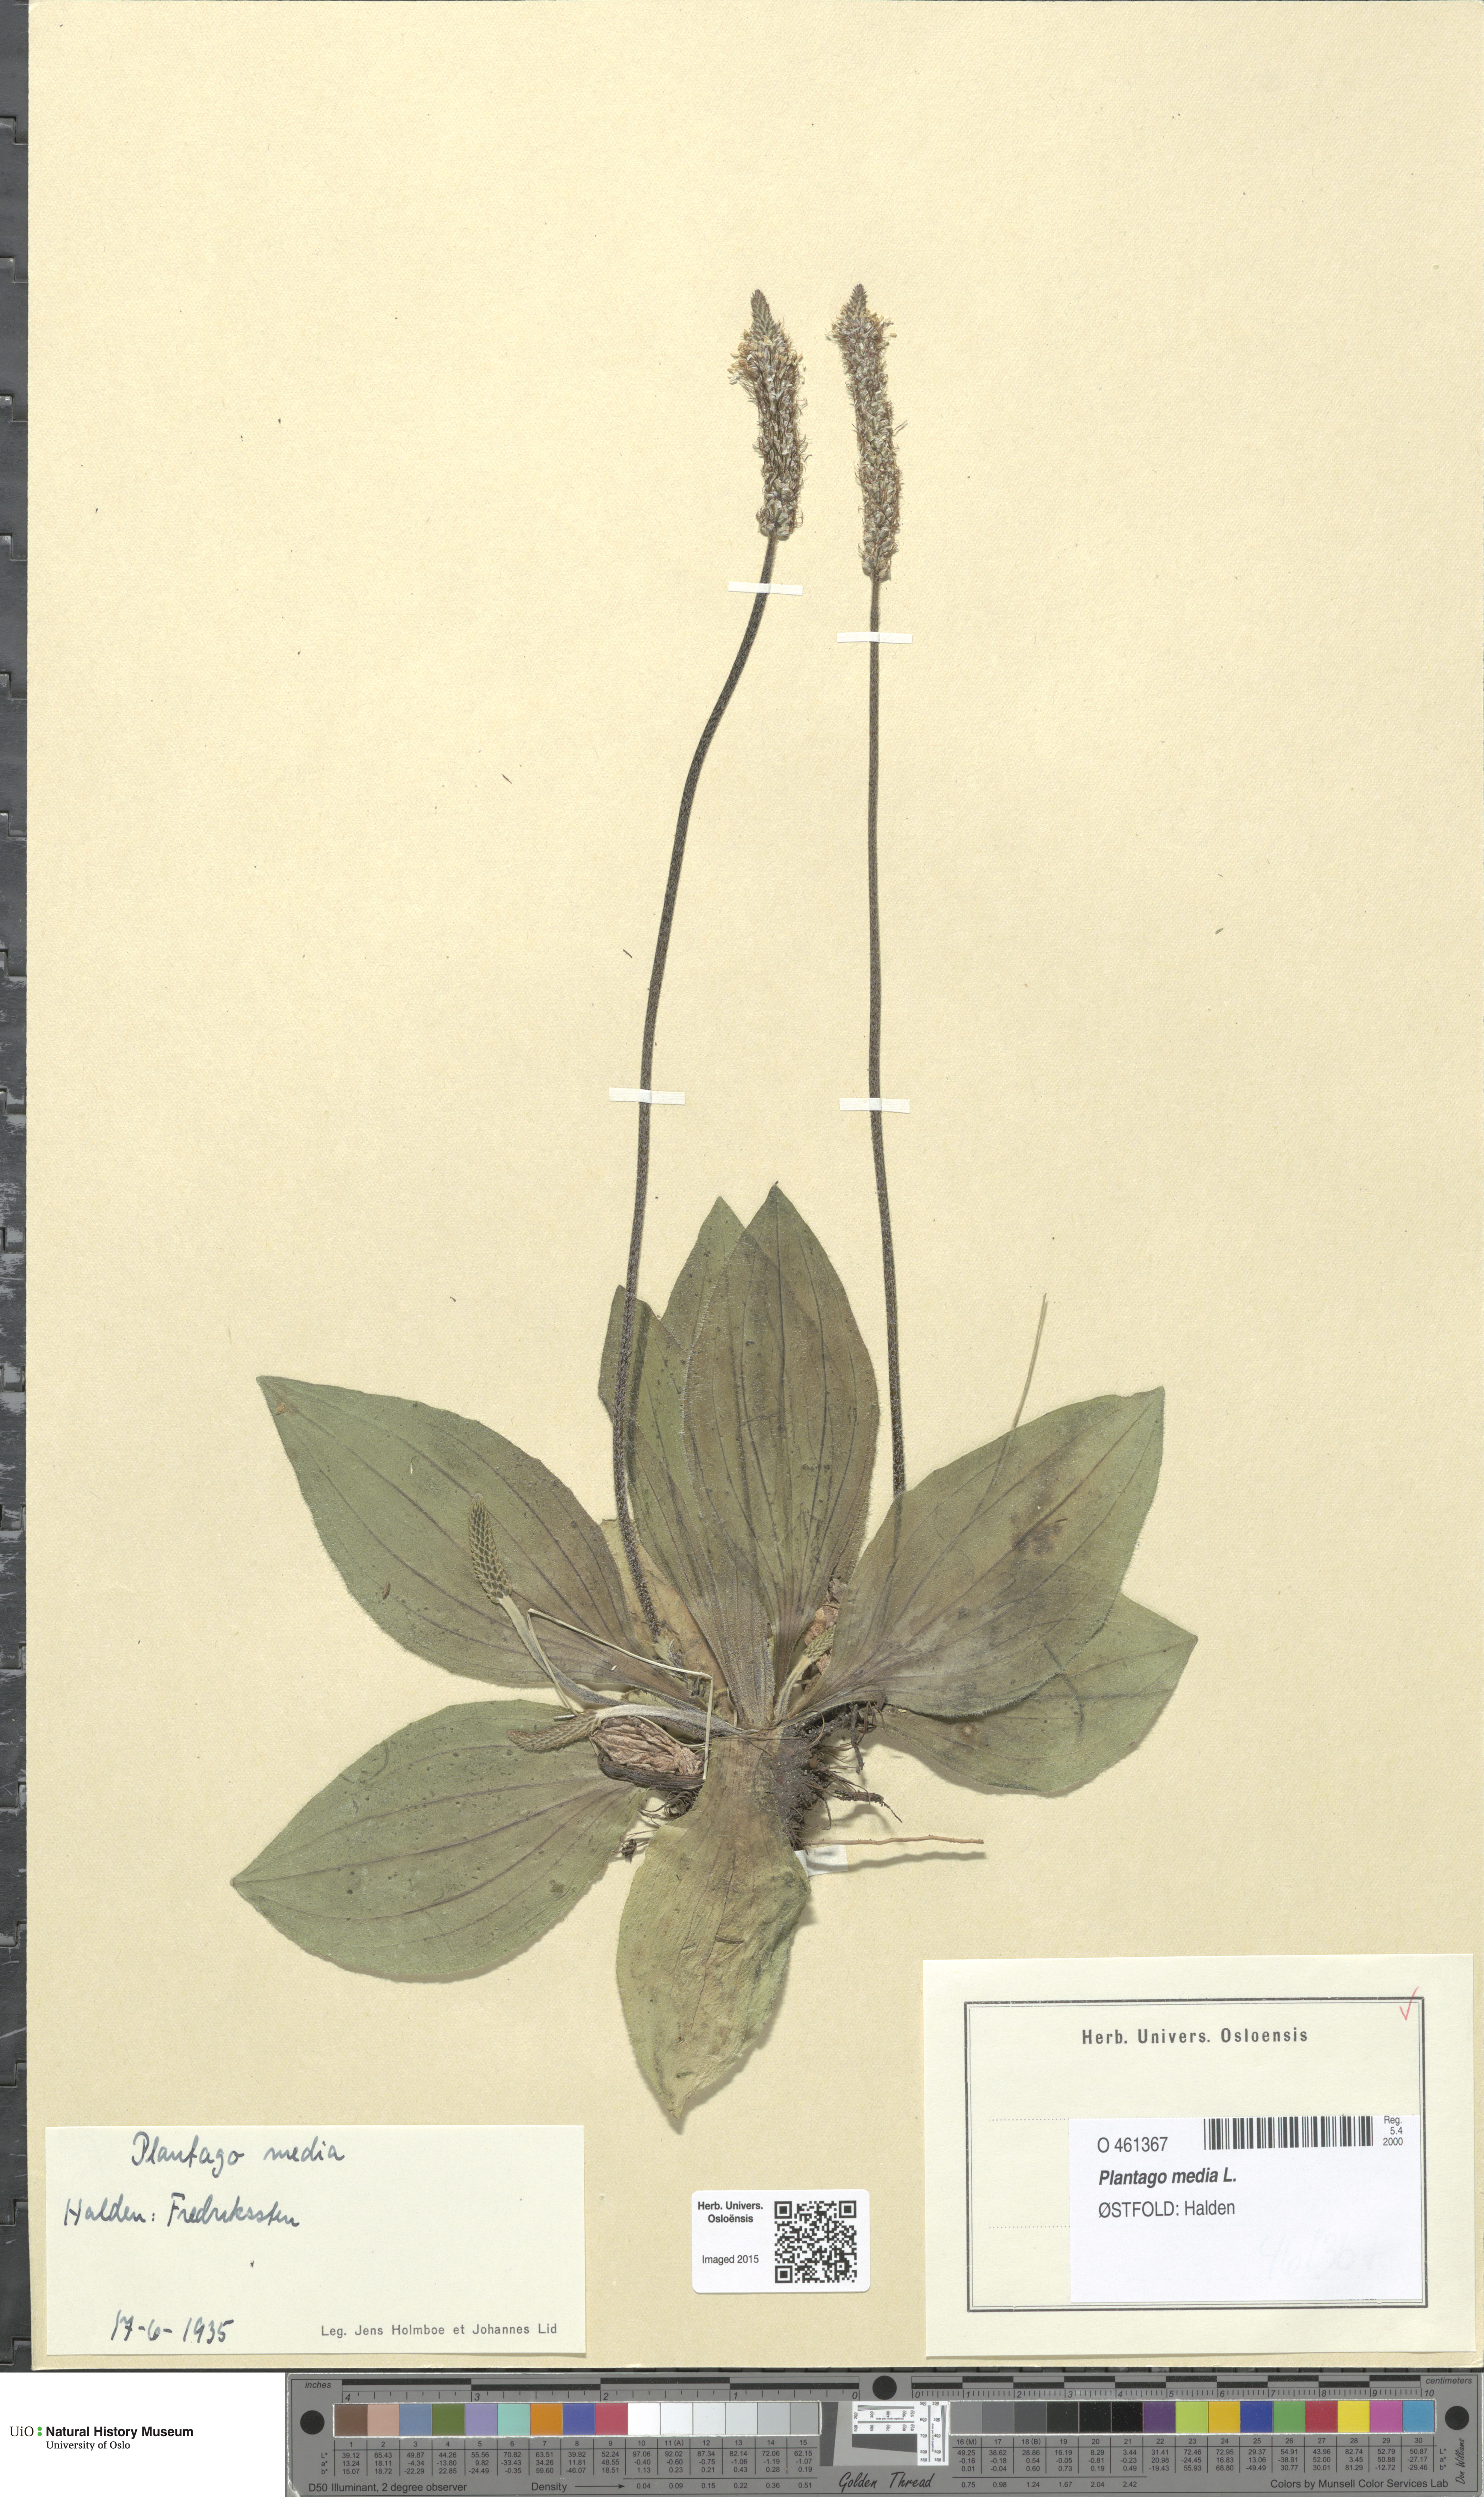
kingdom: Plantae
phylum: Tracheophyta
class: Magnoliopsida
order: Lamiales
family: Plantaginaceae
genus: Plantago
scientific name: Plantago media
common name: Hoary plantain
